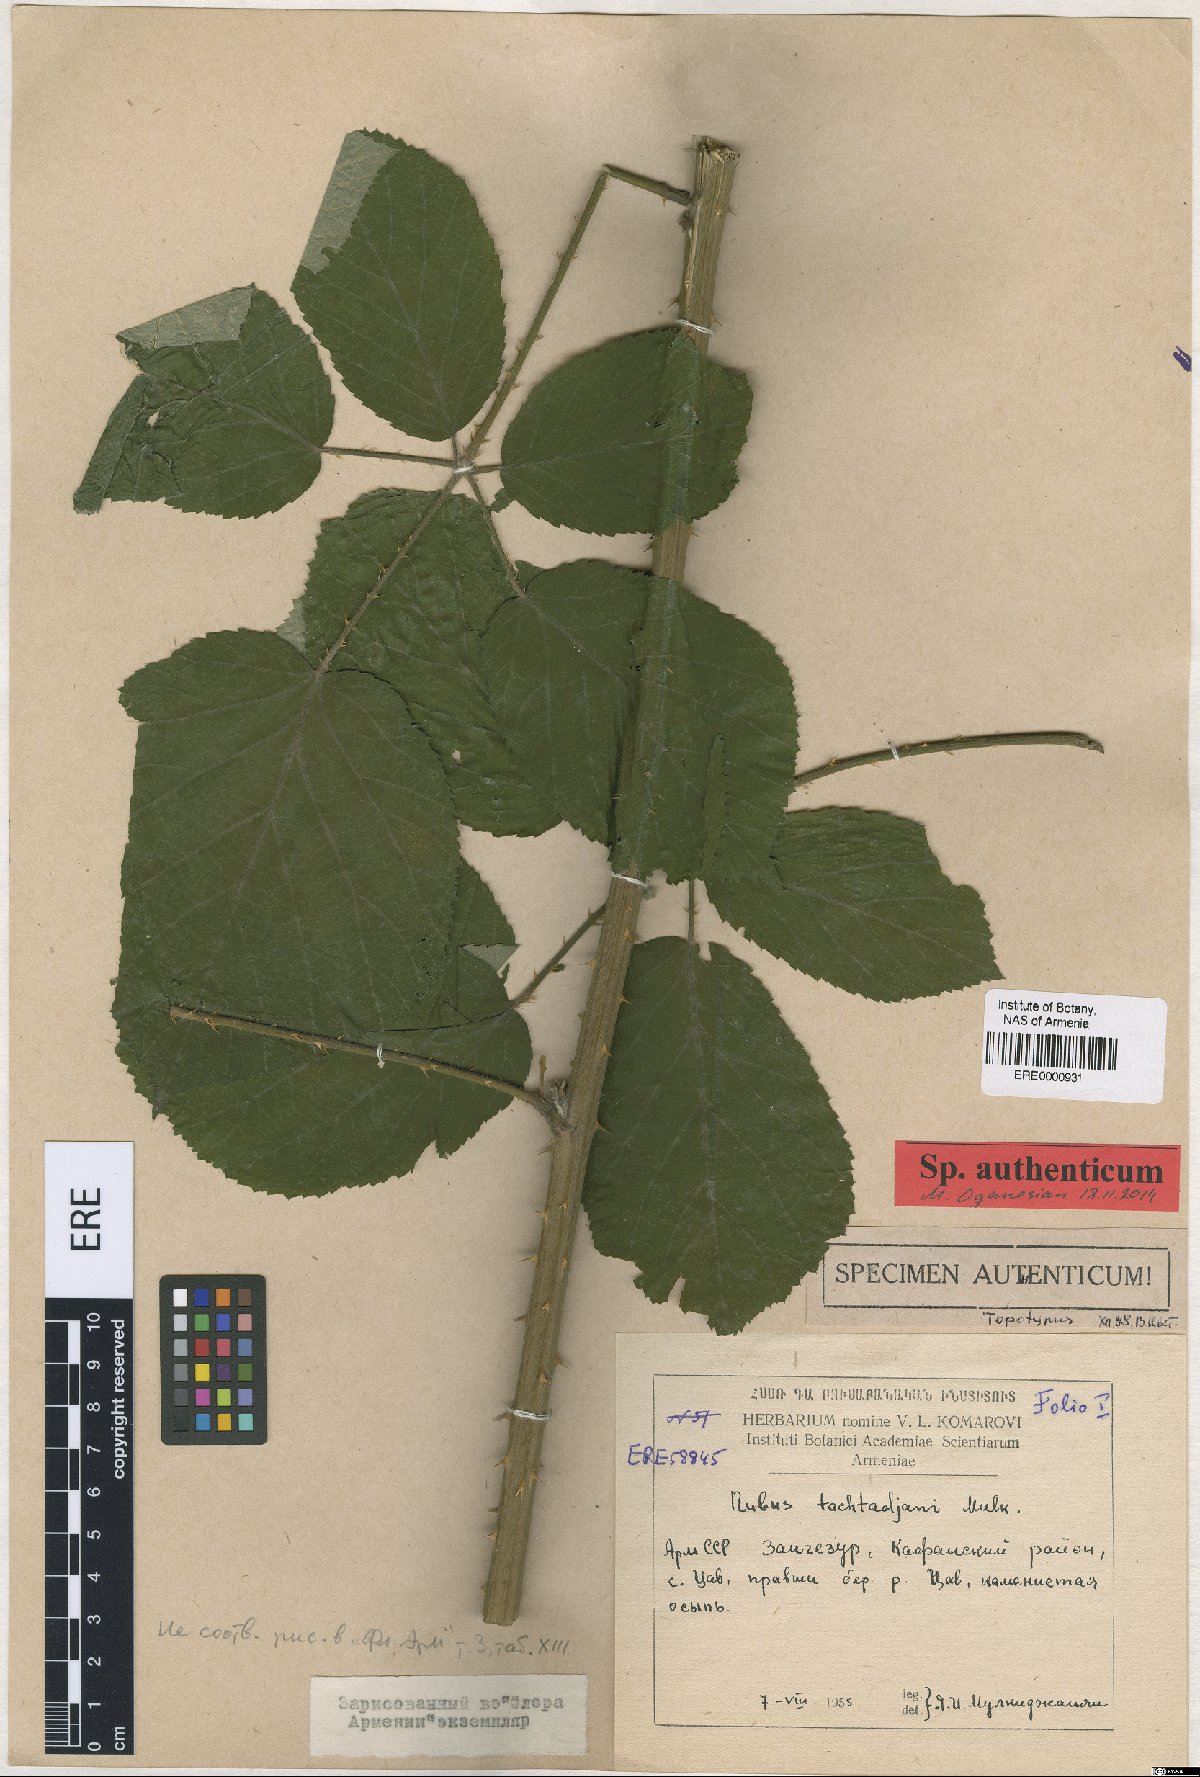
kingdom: Plantae
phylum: Tracheophyta
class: Magnoliopsida
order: Rosales
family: Rosaceae
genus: Rubus
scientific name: Rubus takhtadjanii
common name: Takhtadjan's blackberry
